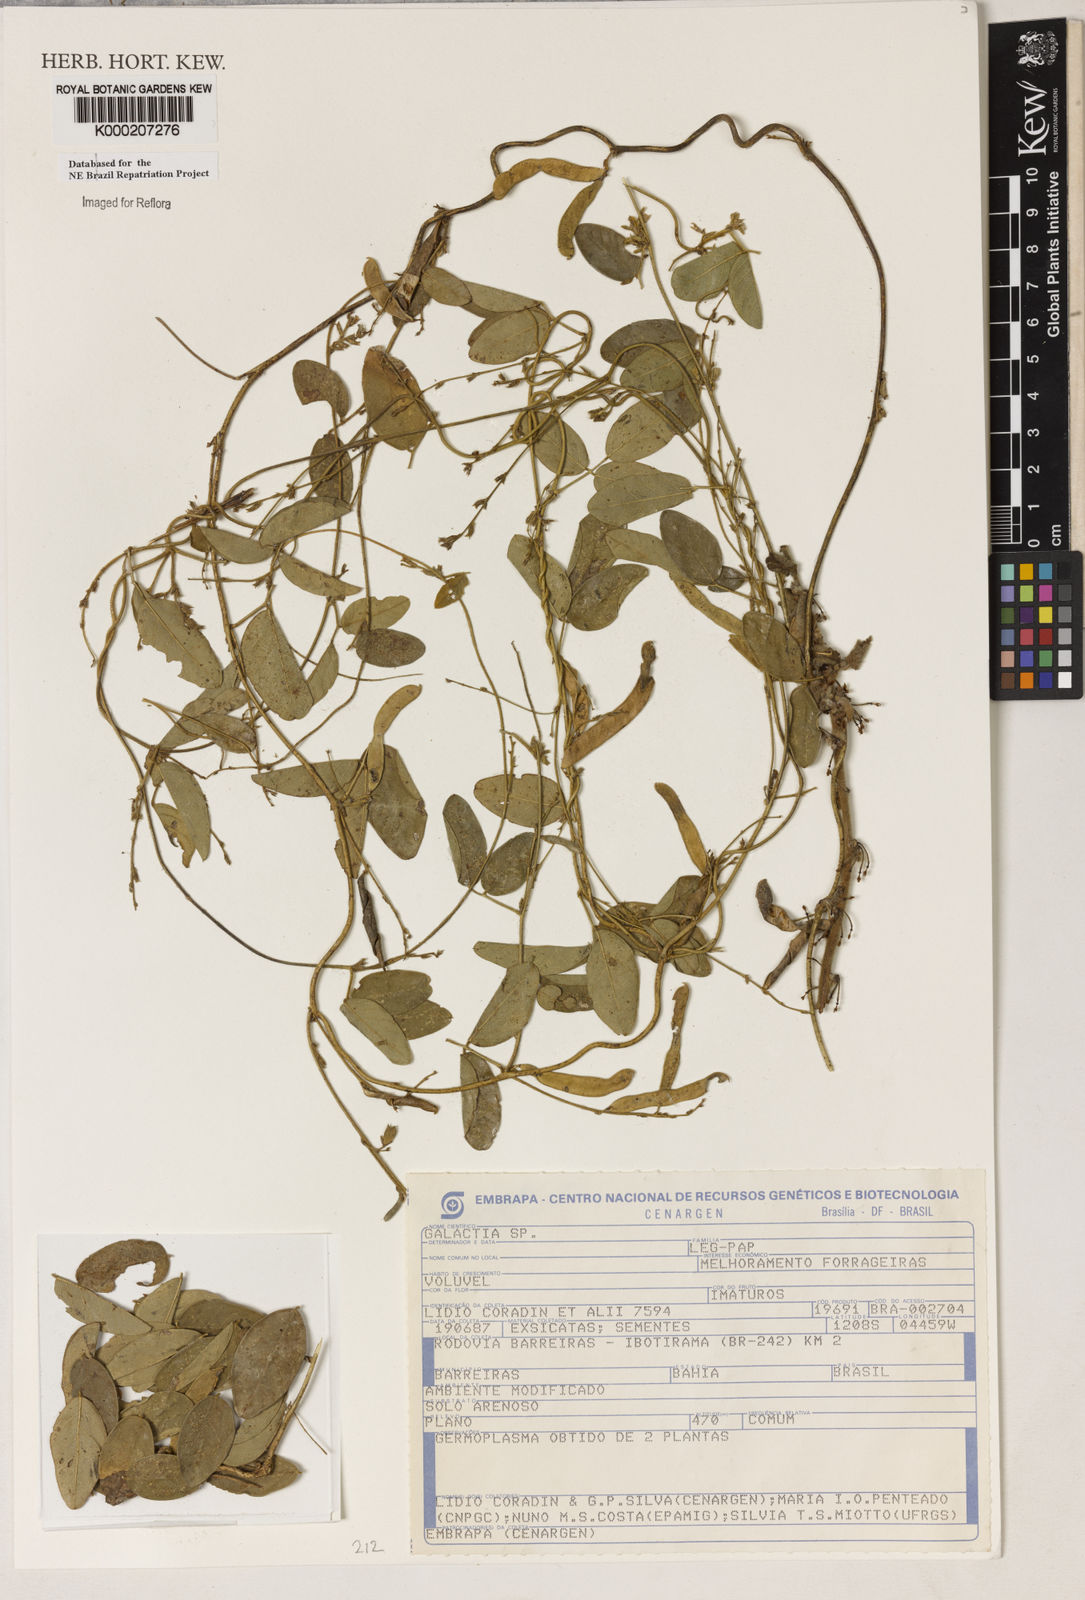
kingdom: Plantae
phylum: Tracheophyta
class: Magnoliopsida
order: Fabales
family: Fabaceae
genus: Galactia
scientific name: Galactia
